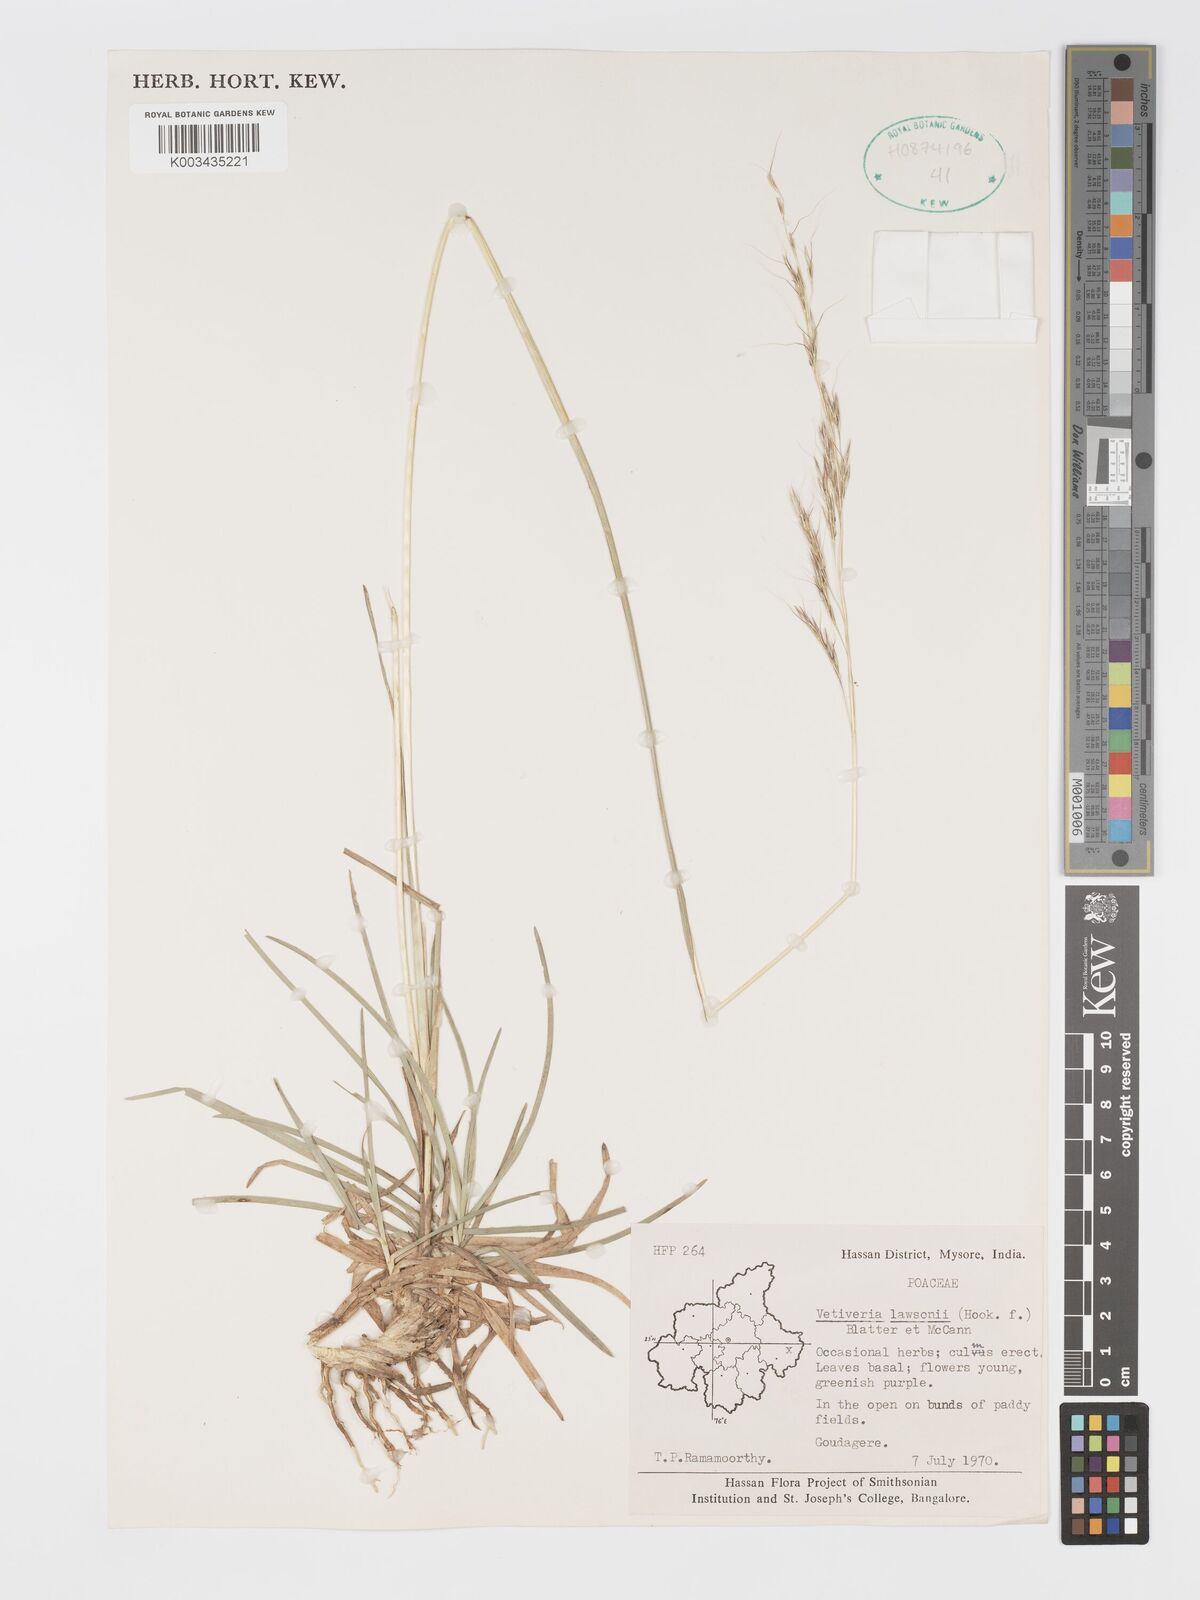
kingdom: Plantae
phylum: Tracheophyta
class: Liliopsida
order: Poales
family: Poaceae
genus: Chrysopogon
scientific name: Chrysopogon lawsonii
